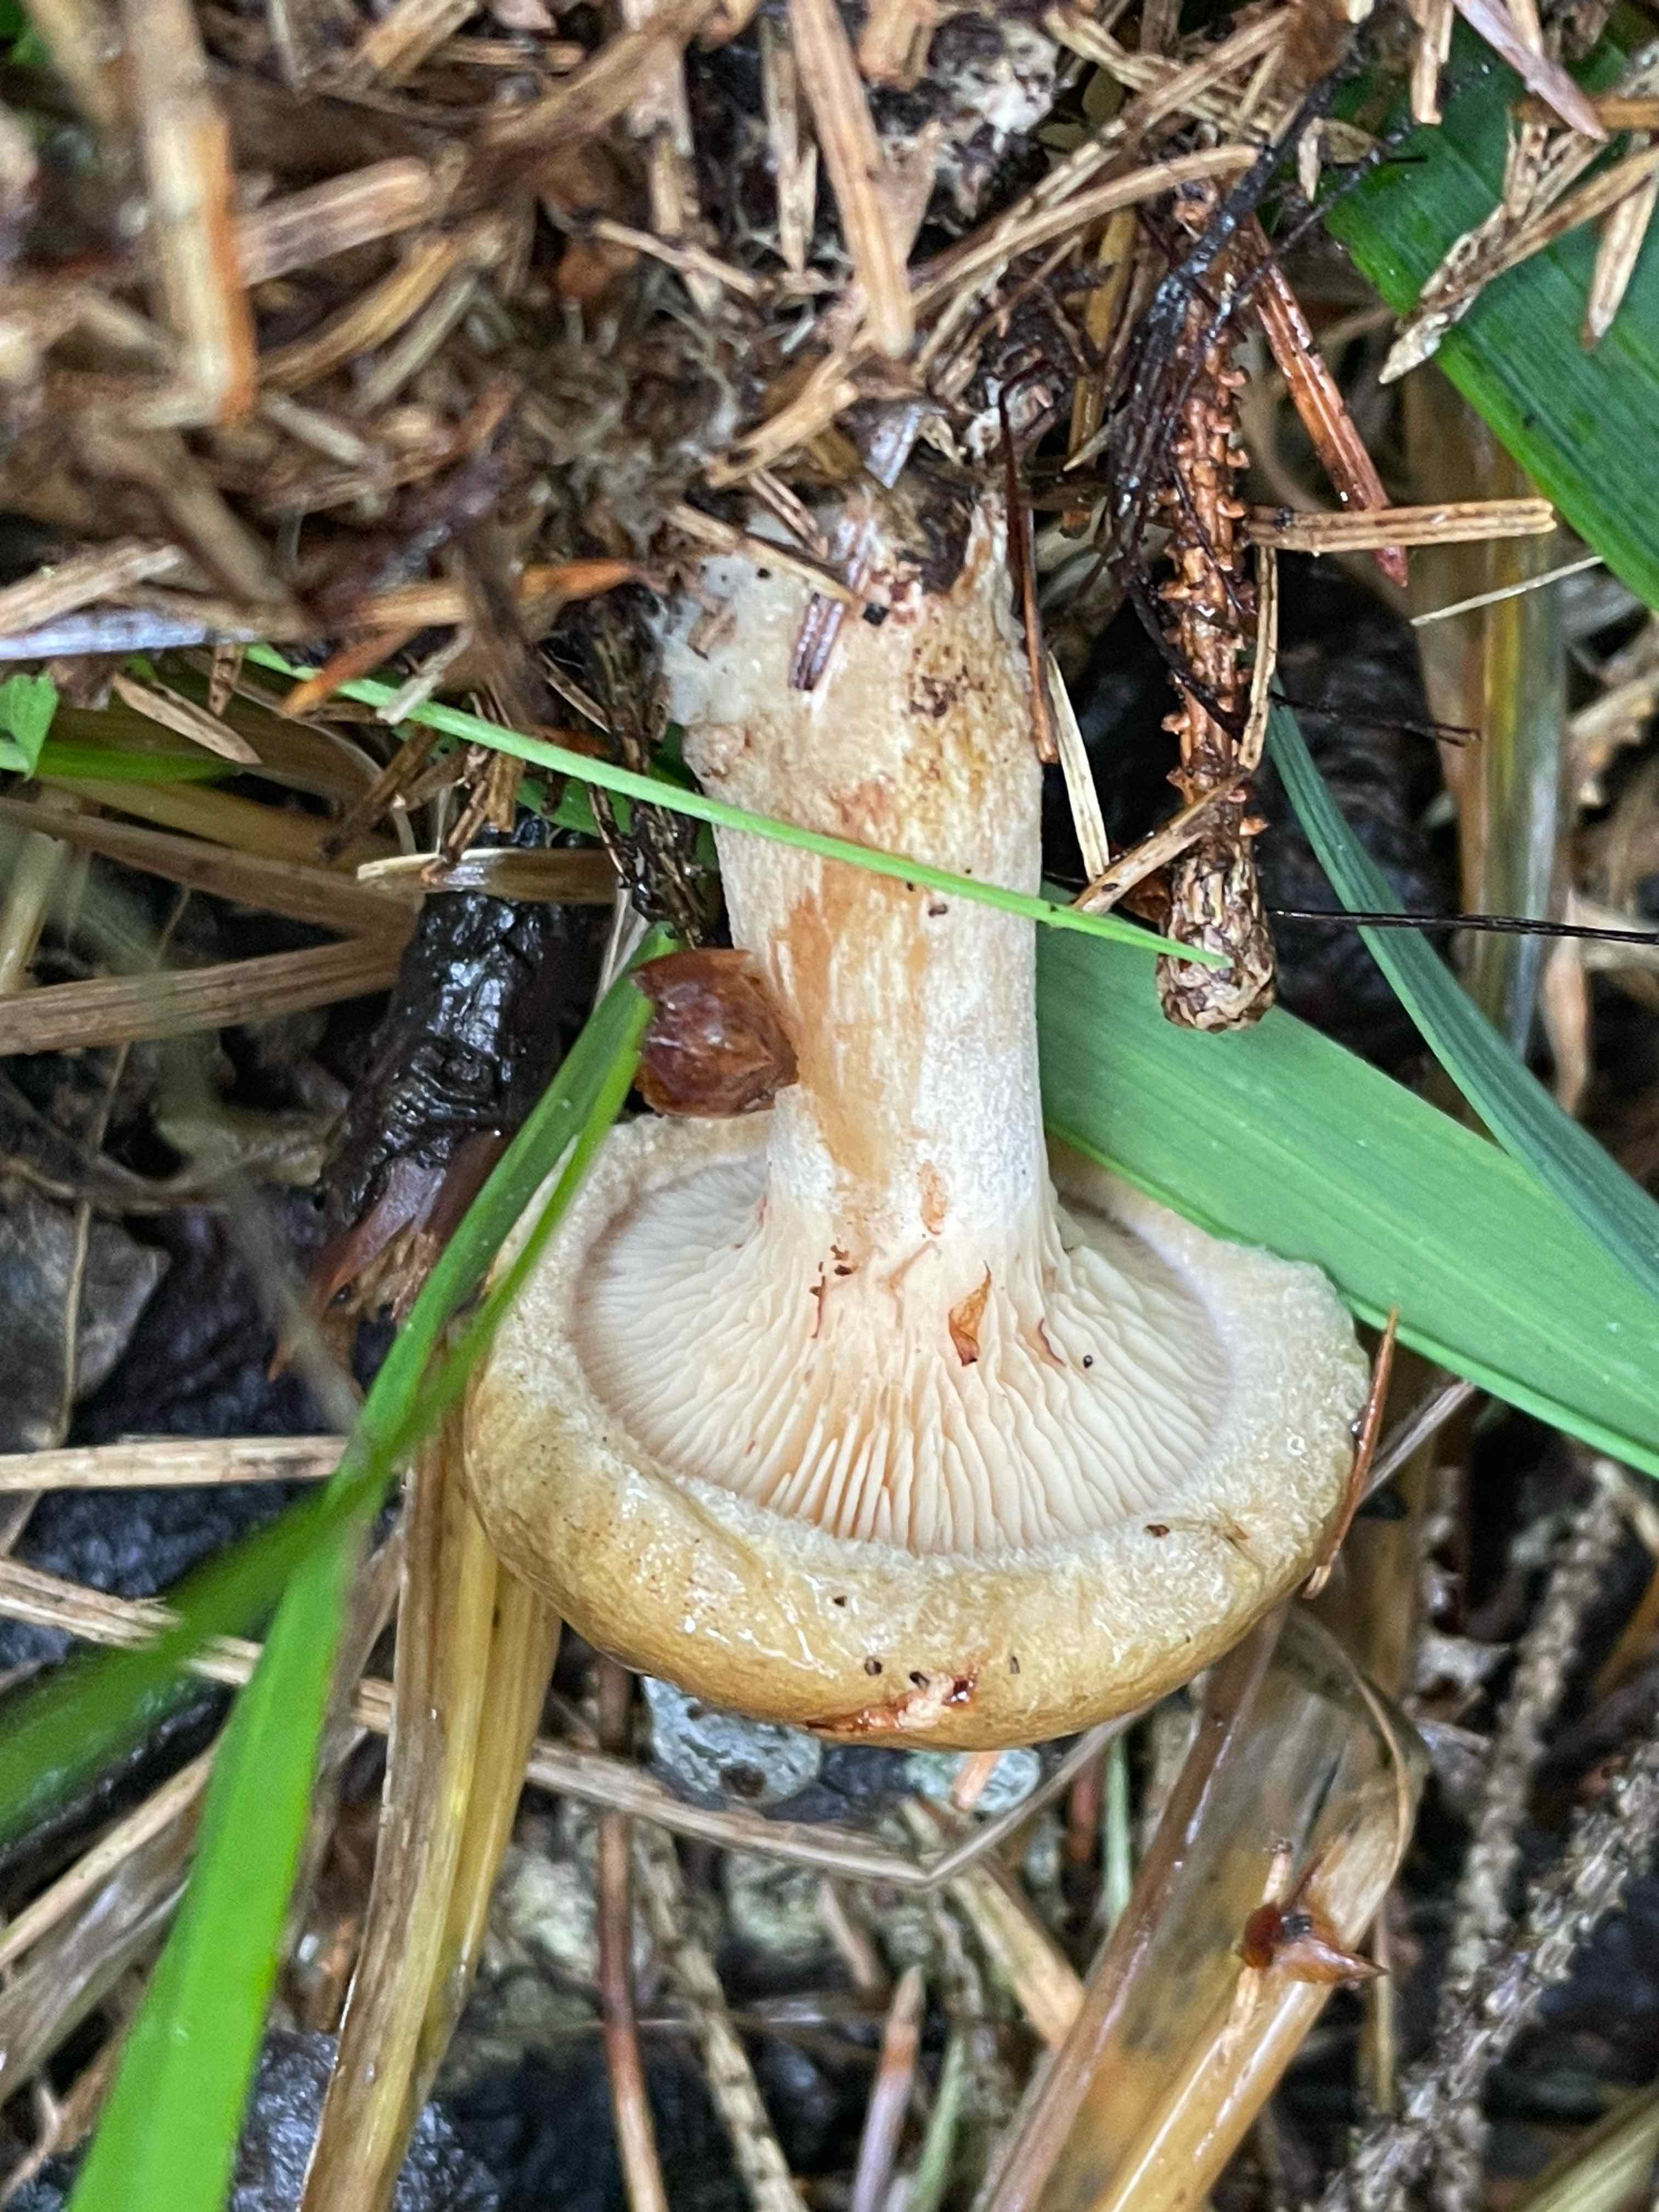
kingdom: Fungi
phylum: Basidiomycota
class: Agaricomycetes
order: Boletales
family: Paxillaceae
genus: Paxillus
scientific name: Paxillus involutus
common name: almindelig netbladhat
